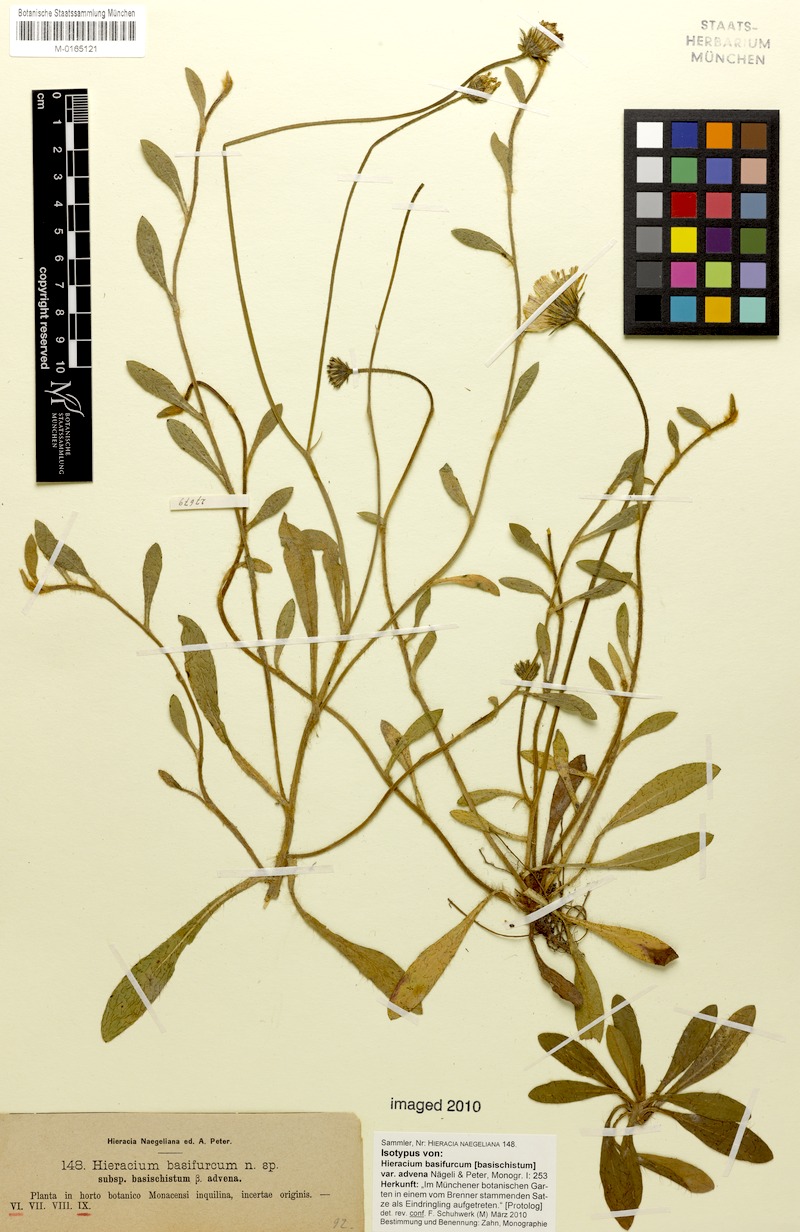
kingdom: Plantae
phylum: Tracheophyta
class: Magnoliopsida
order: Asterales
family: Asteraceae
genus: Pilosella
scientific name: Pilosella basifurca
